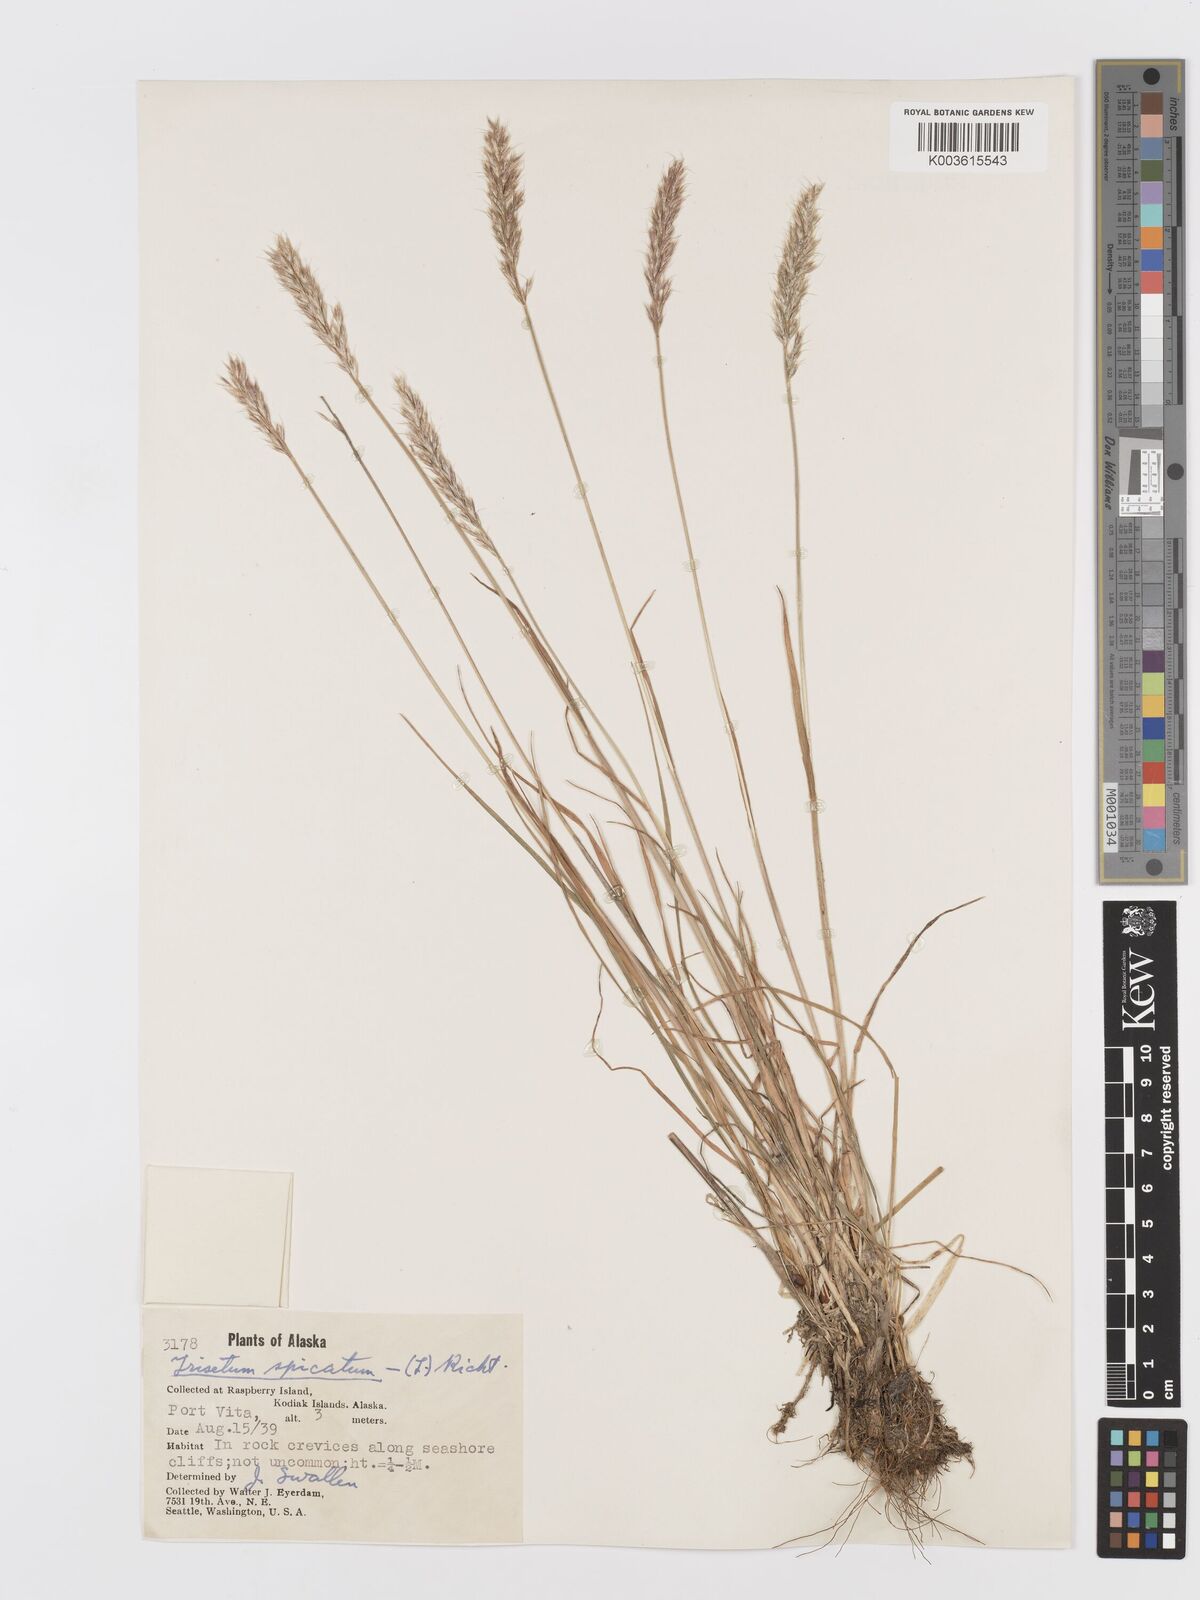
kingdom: Plantae
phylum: Tracheophyta
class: Liliopsida
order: Poales
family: Poaceae
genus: Koeleria
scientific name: Koeleria spicata
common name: Mountain trisetum
